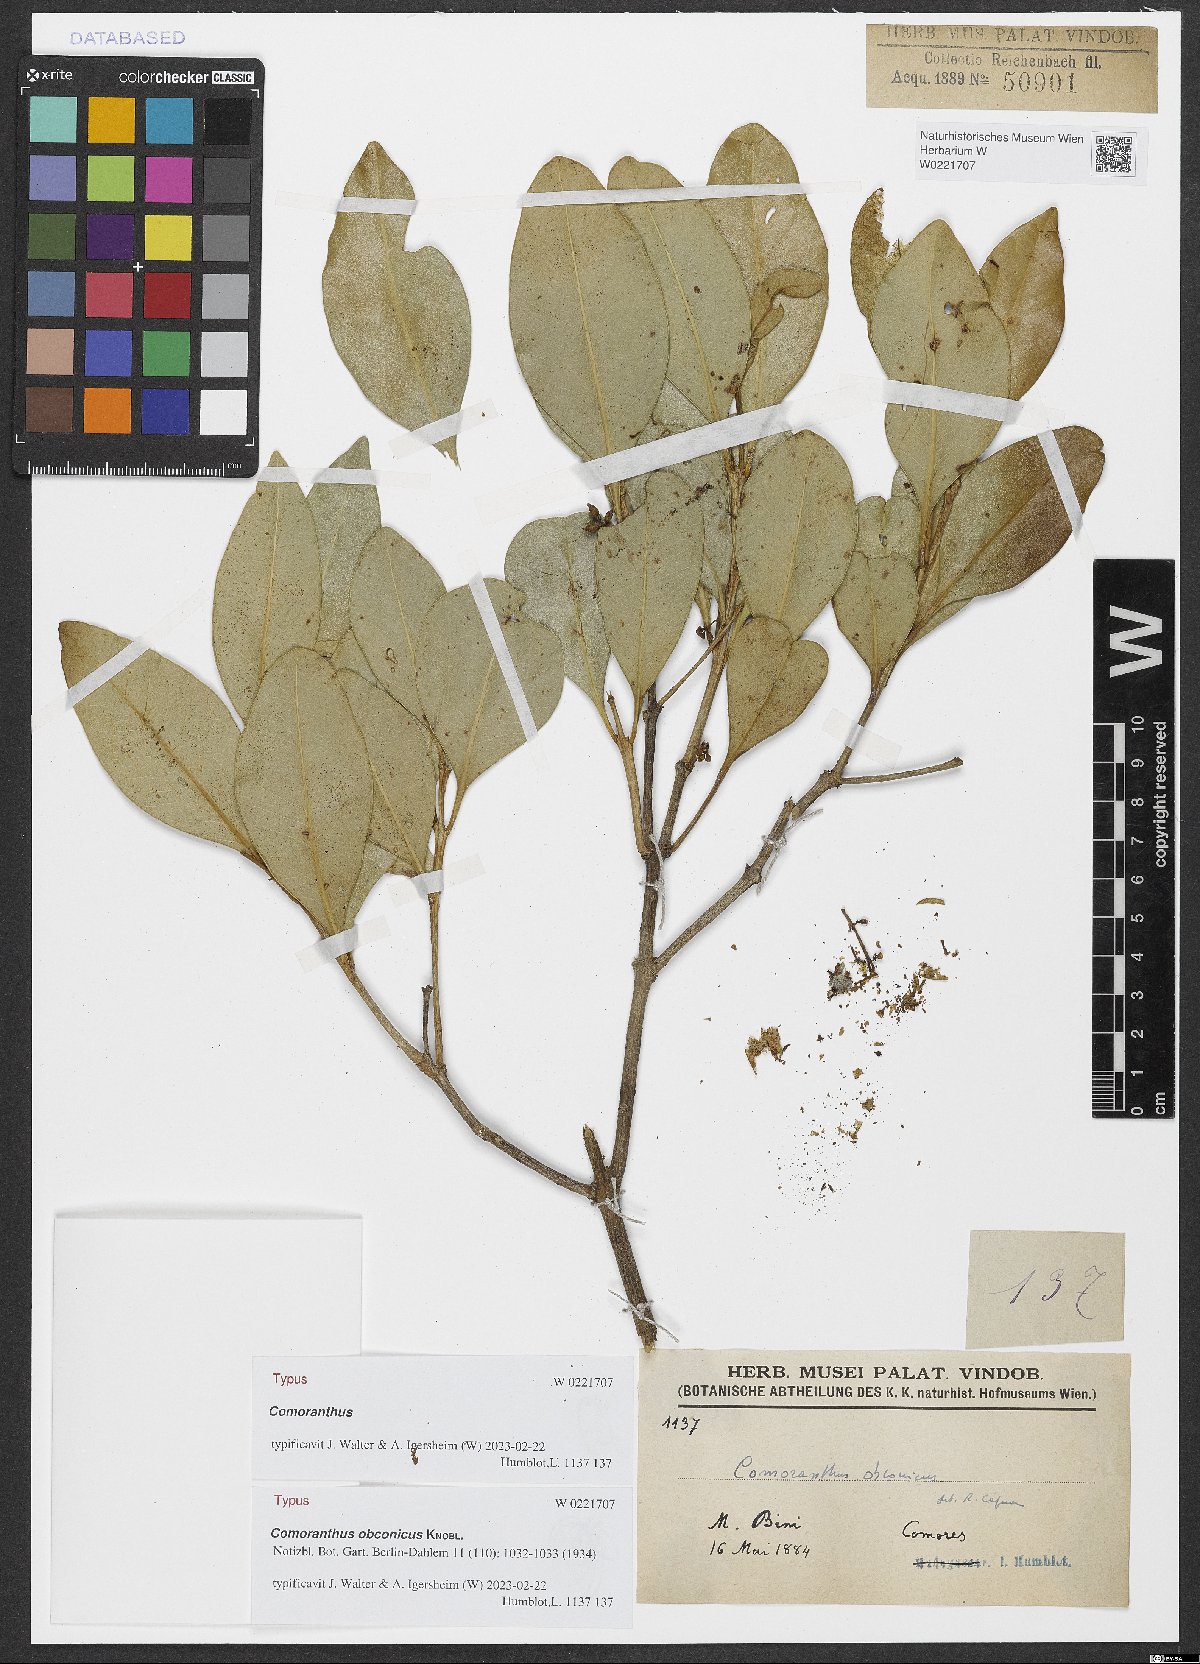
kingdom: Plantae
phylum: Tracheophyta
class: Magnoliopsida
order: Lamiales
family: Oleaceae
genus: Comoranthus
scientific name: Comoranthus obconicus
